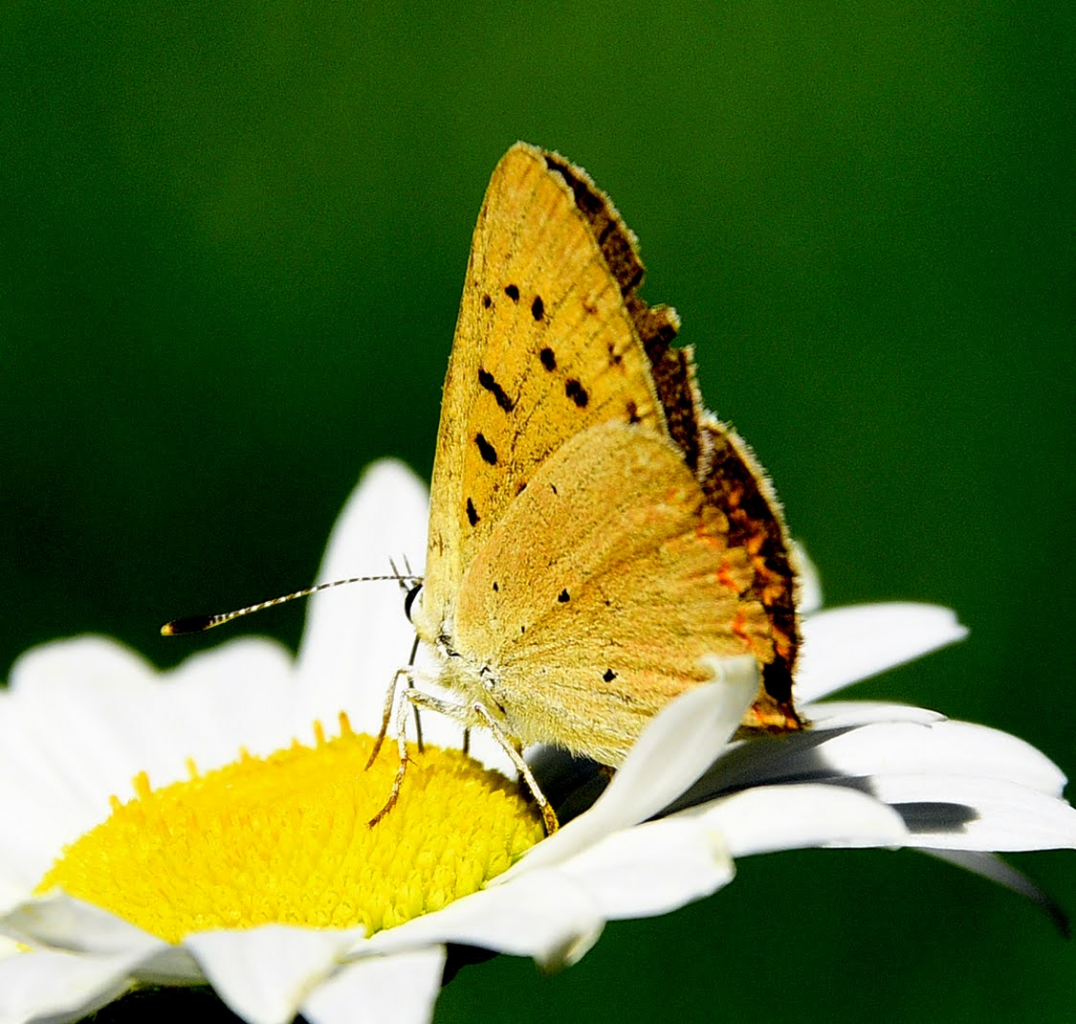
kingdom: Animalia
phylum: Arthropoda
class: Insecta
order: Lepidoptera
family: Sesiidae
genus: Sesia
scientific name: Sesia Lycaena helloides
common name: Purplish Copper
